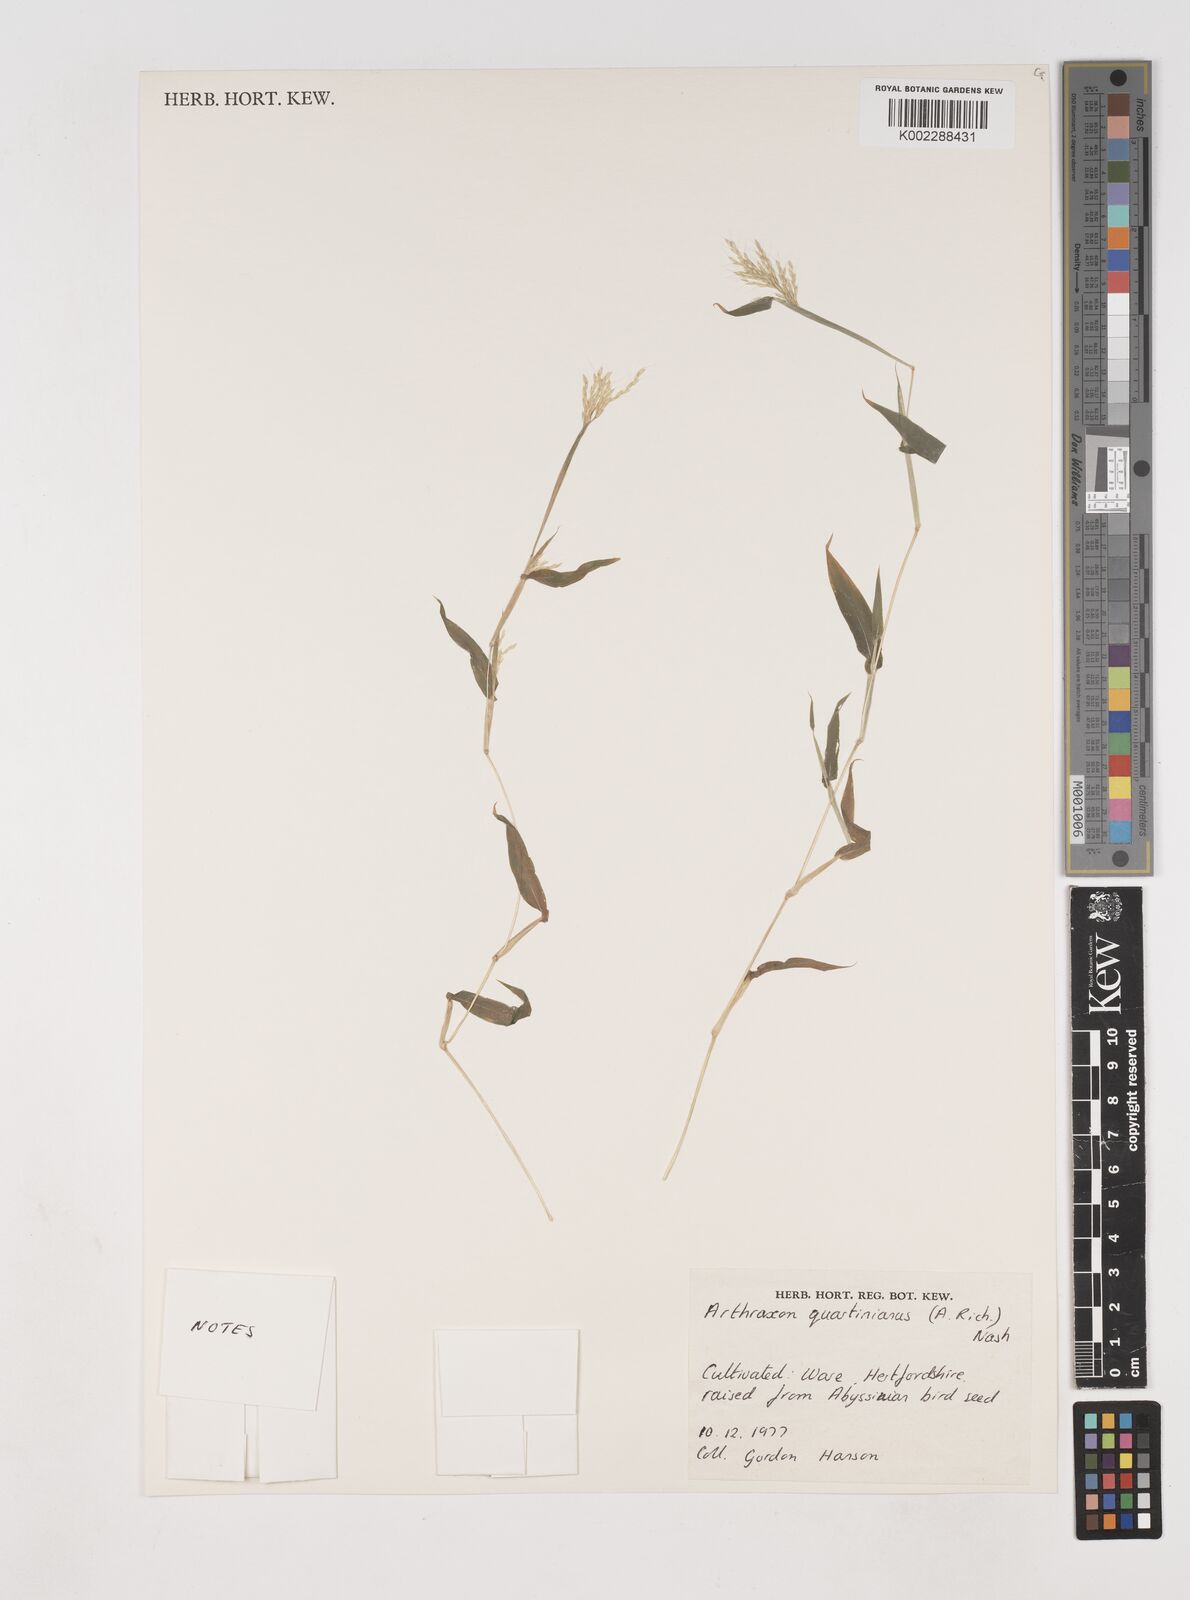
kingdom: Plantae
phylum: Tracheophyta
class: Liliopsida
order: Poales
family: Poaceae
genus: Arthraxon
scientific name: Arthraxon
